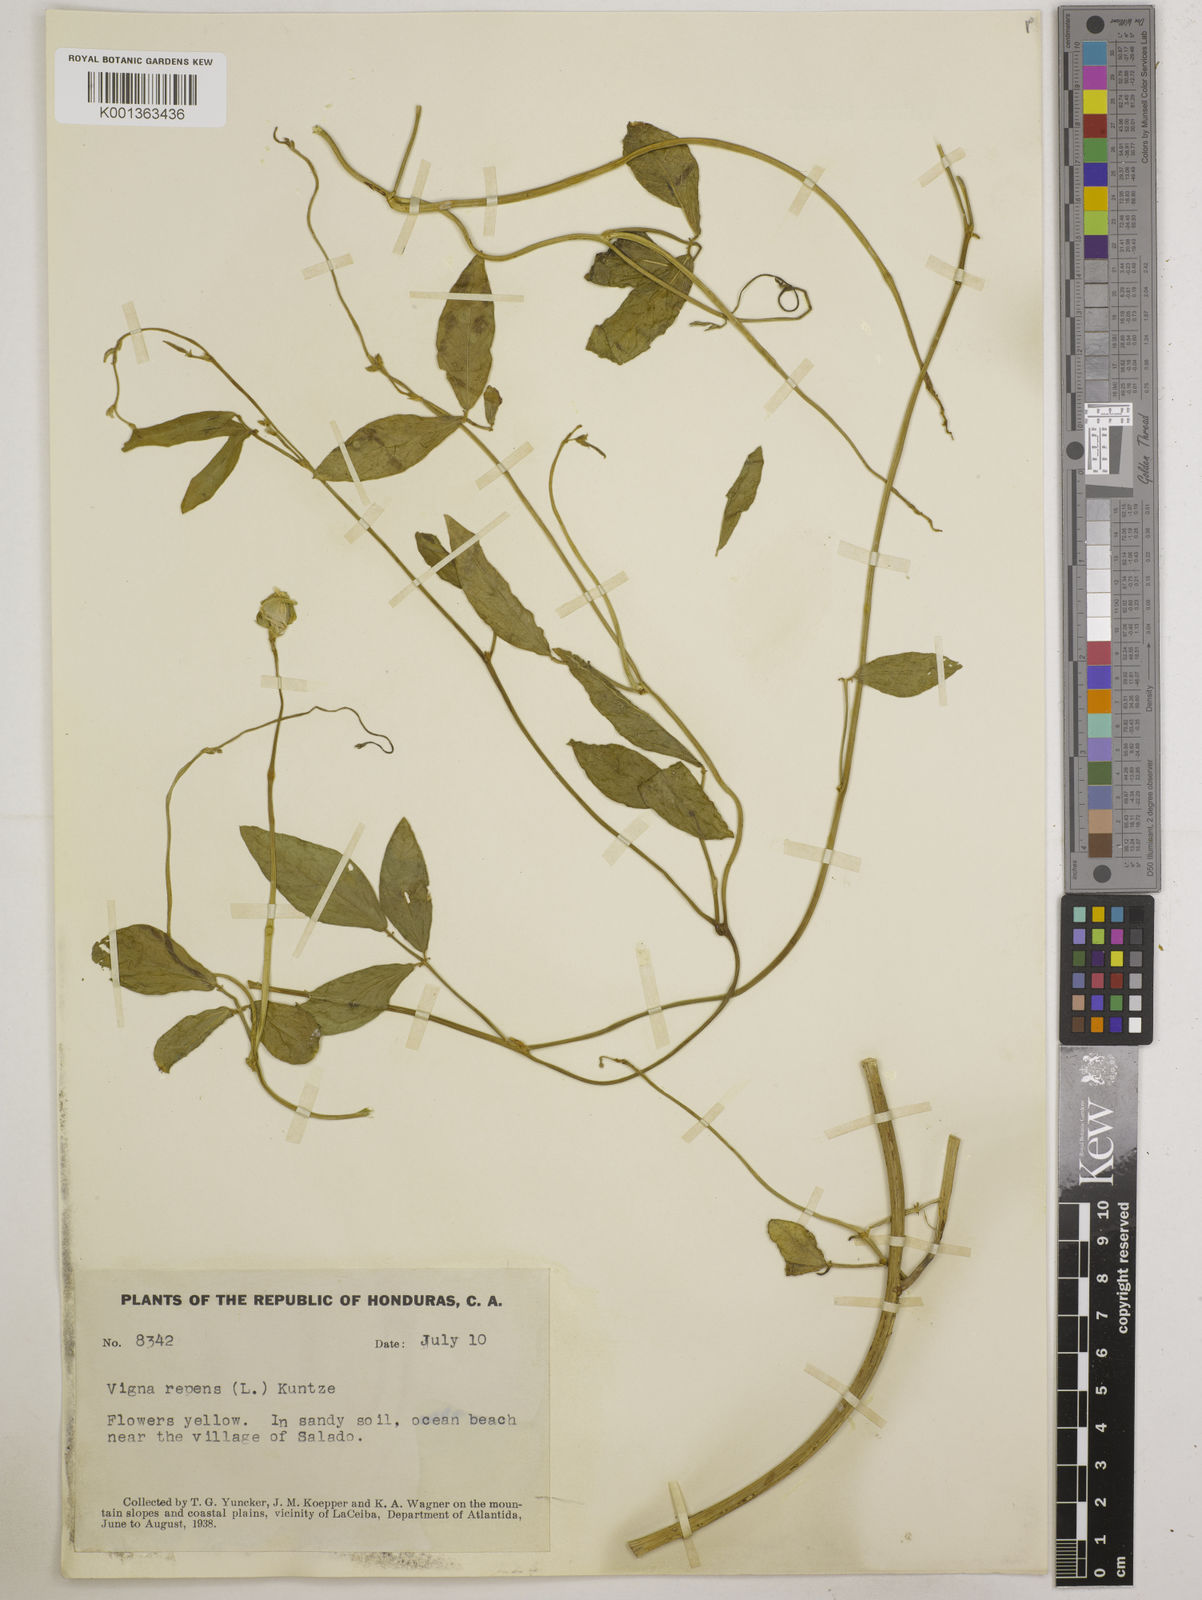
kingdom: Plantae
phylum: Tracheophyta
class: Magnoliopsida
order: Fabales
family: Fabaceae
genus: Vigna
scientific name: Vigna luteola
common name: Hairypod cowpea
